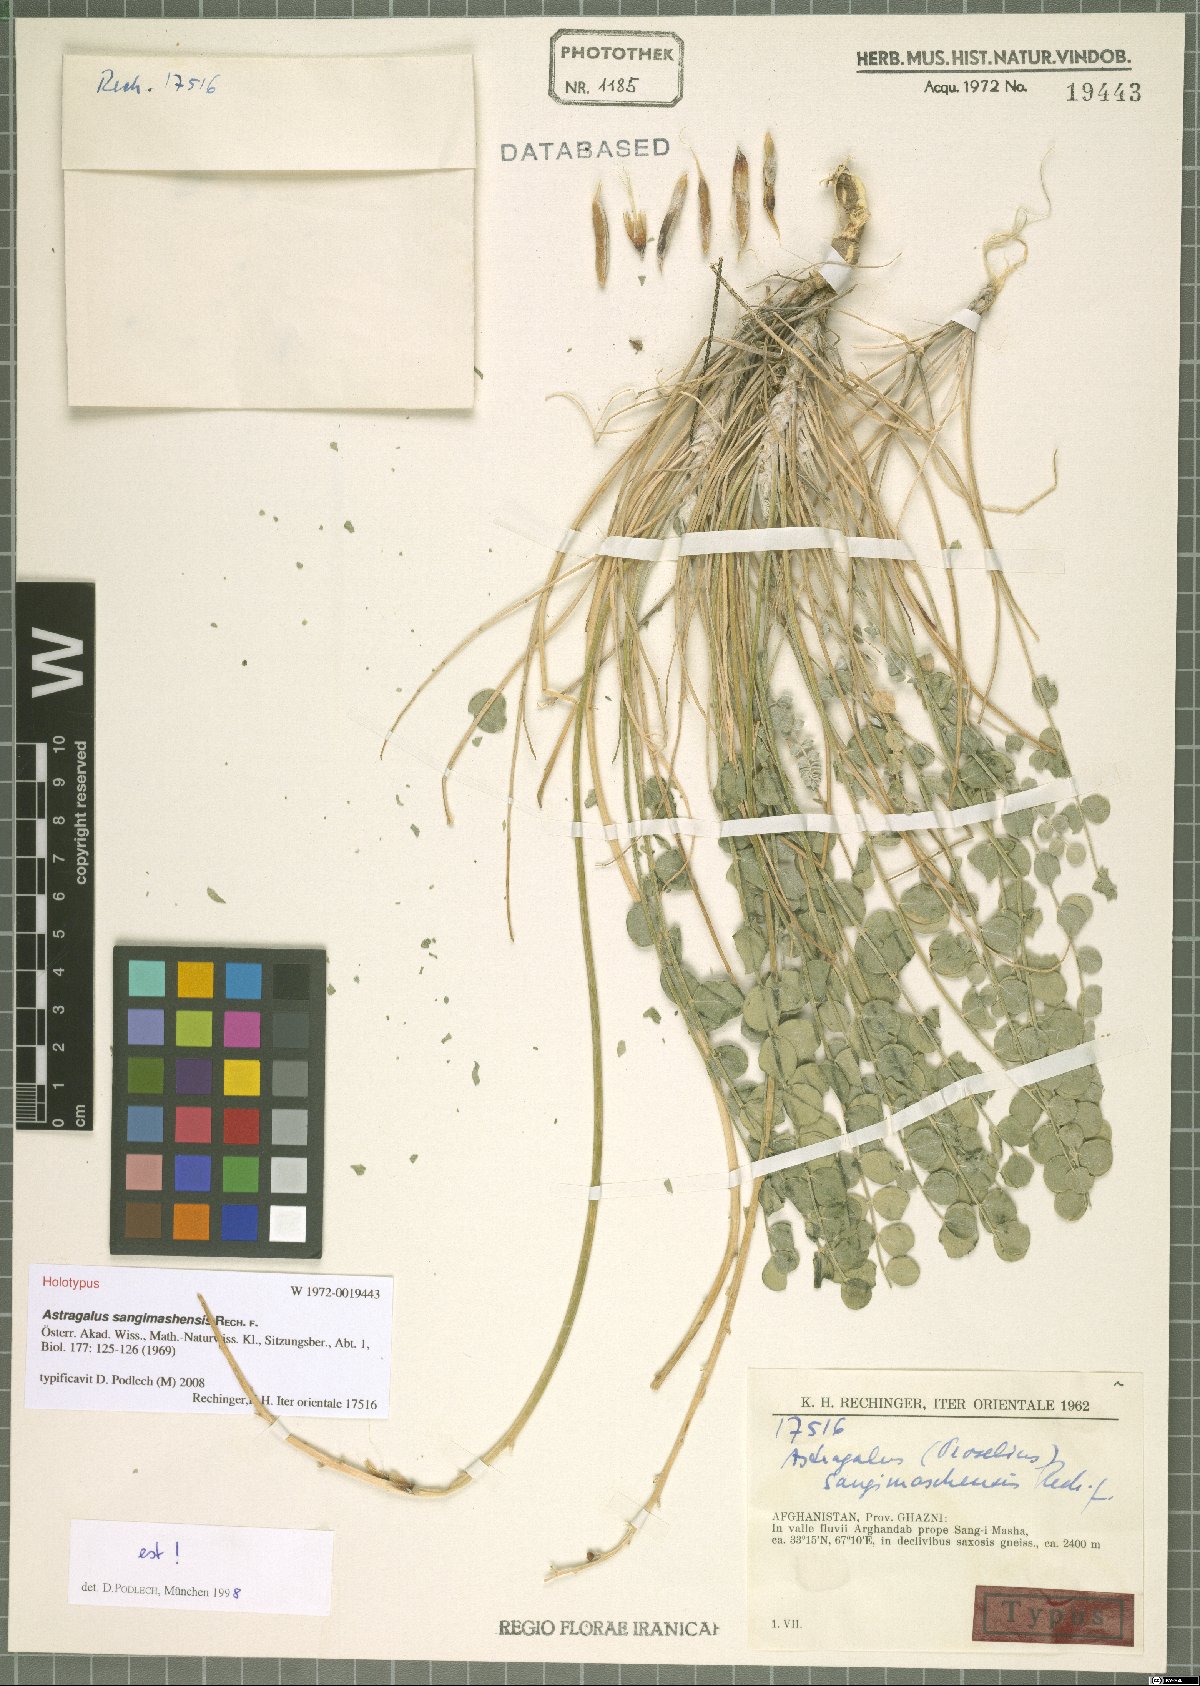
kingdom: Plantae
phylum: Tracheophyta
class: Magnoliopsida
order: Fabales
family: Fabaceae
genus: Astragalus
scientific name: Astragalus sangimashensis
